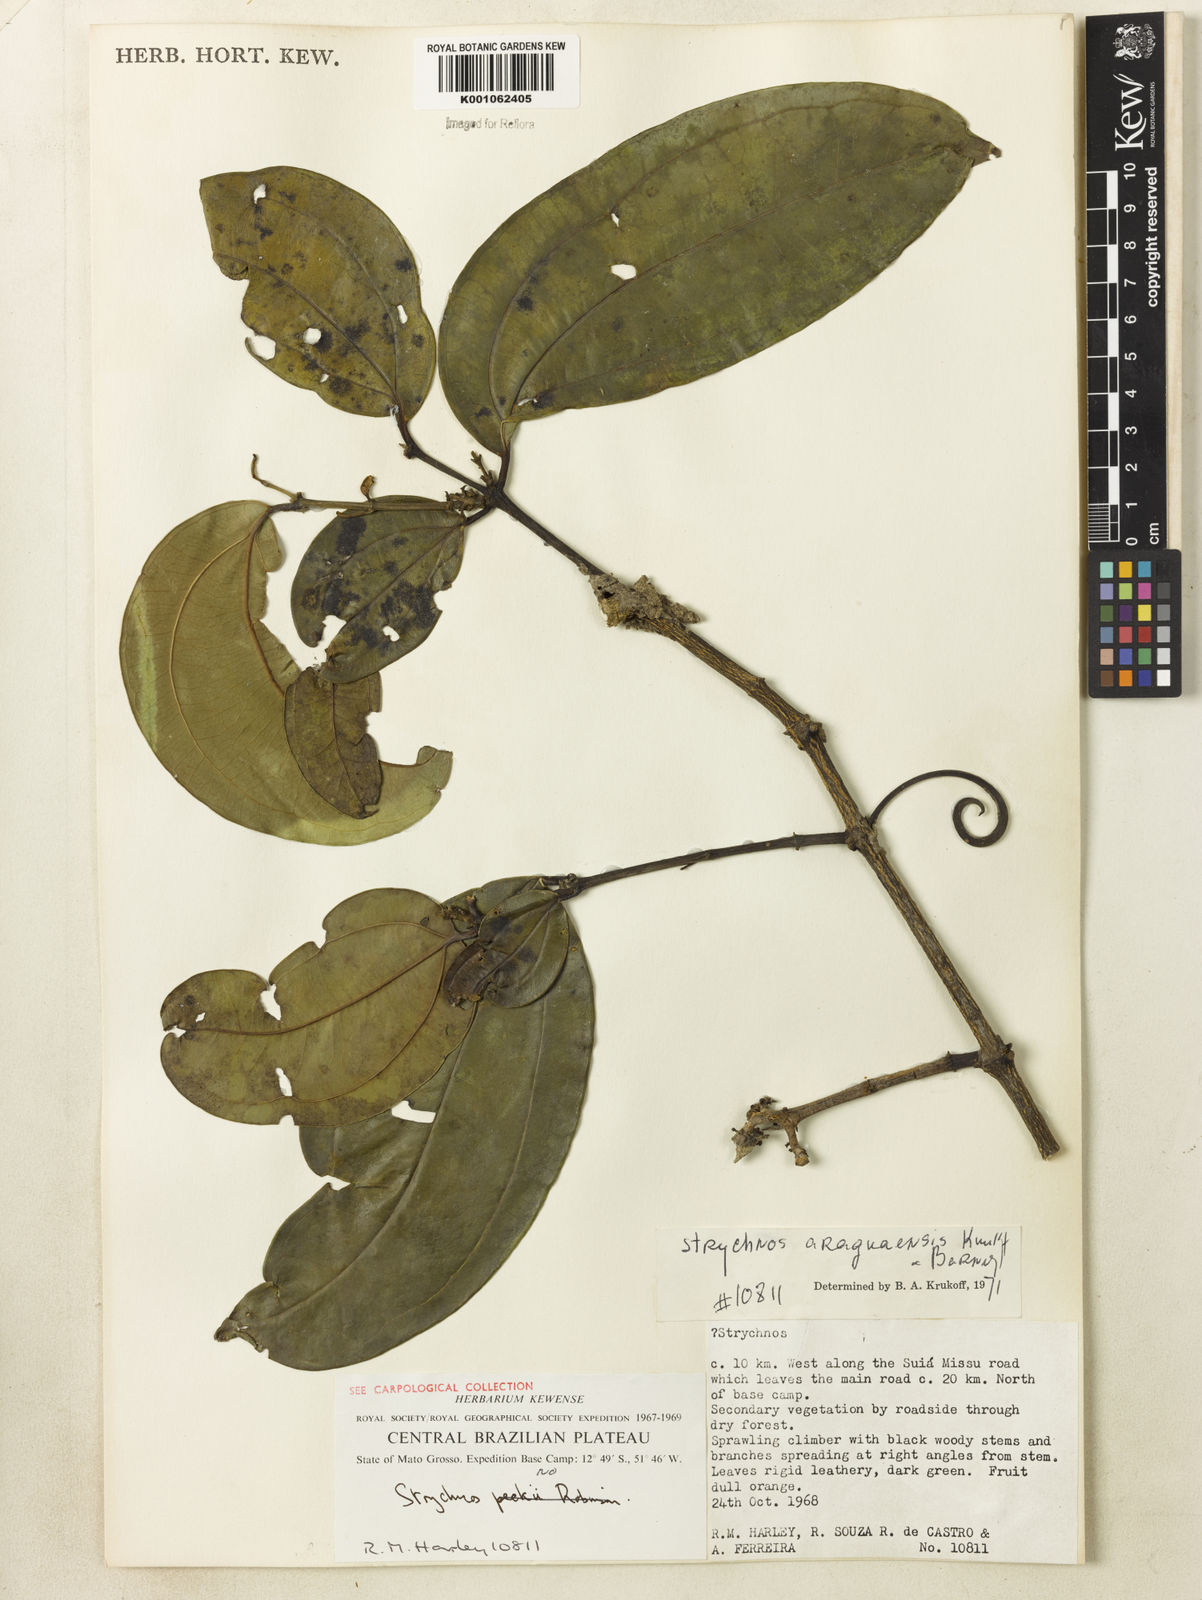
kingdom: Plantae
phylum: Tracheophyta
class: Magnoliopsida
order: Gentianales
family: Loganiaceae
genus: Strychnos
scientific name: Strychnos araguaensis
